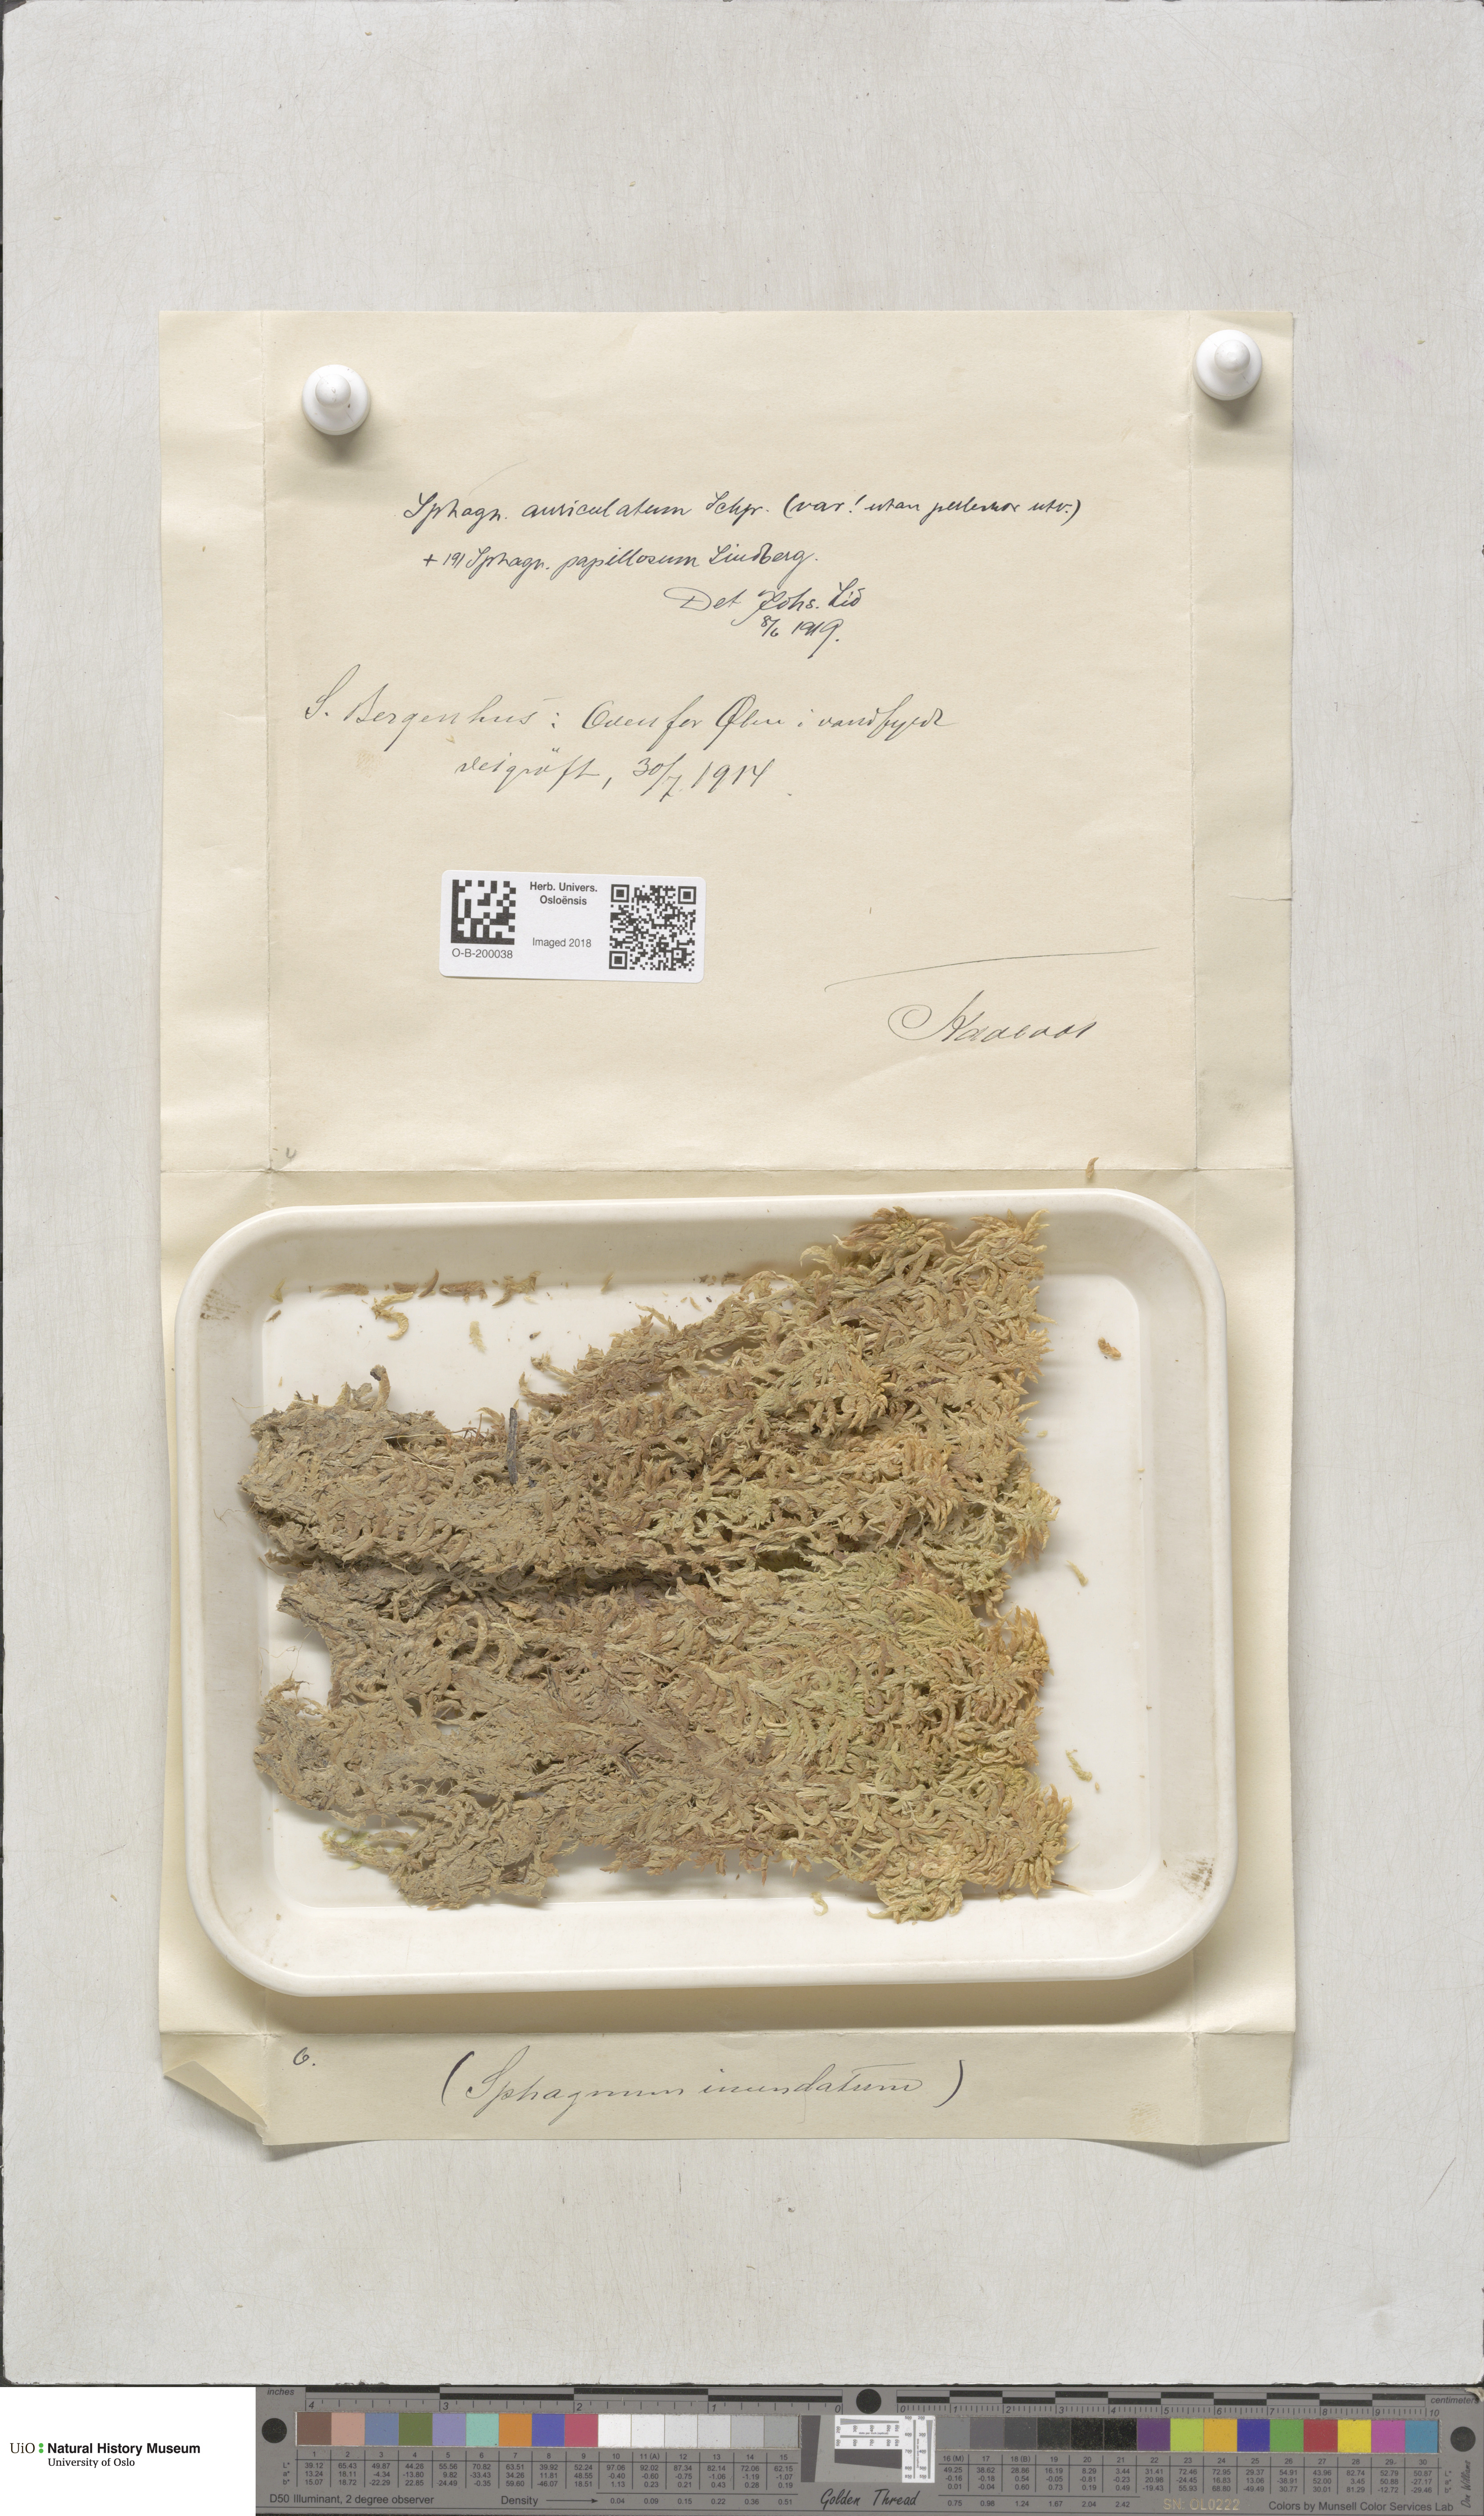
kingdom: Plantae
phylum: Bryophyta
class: Sphagnopsida
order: Sphagnales
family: Sphagnaceae
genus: Sphagnum
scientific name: Sphagnum denticulatum
